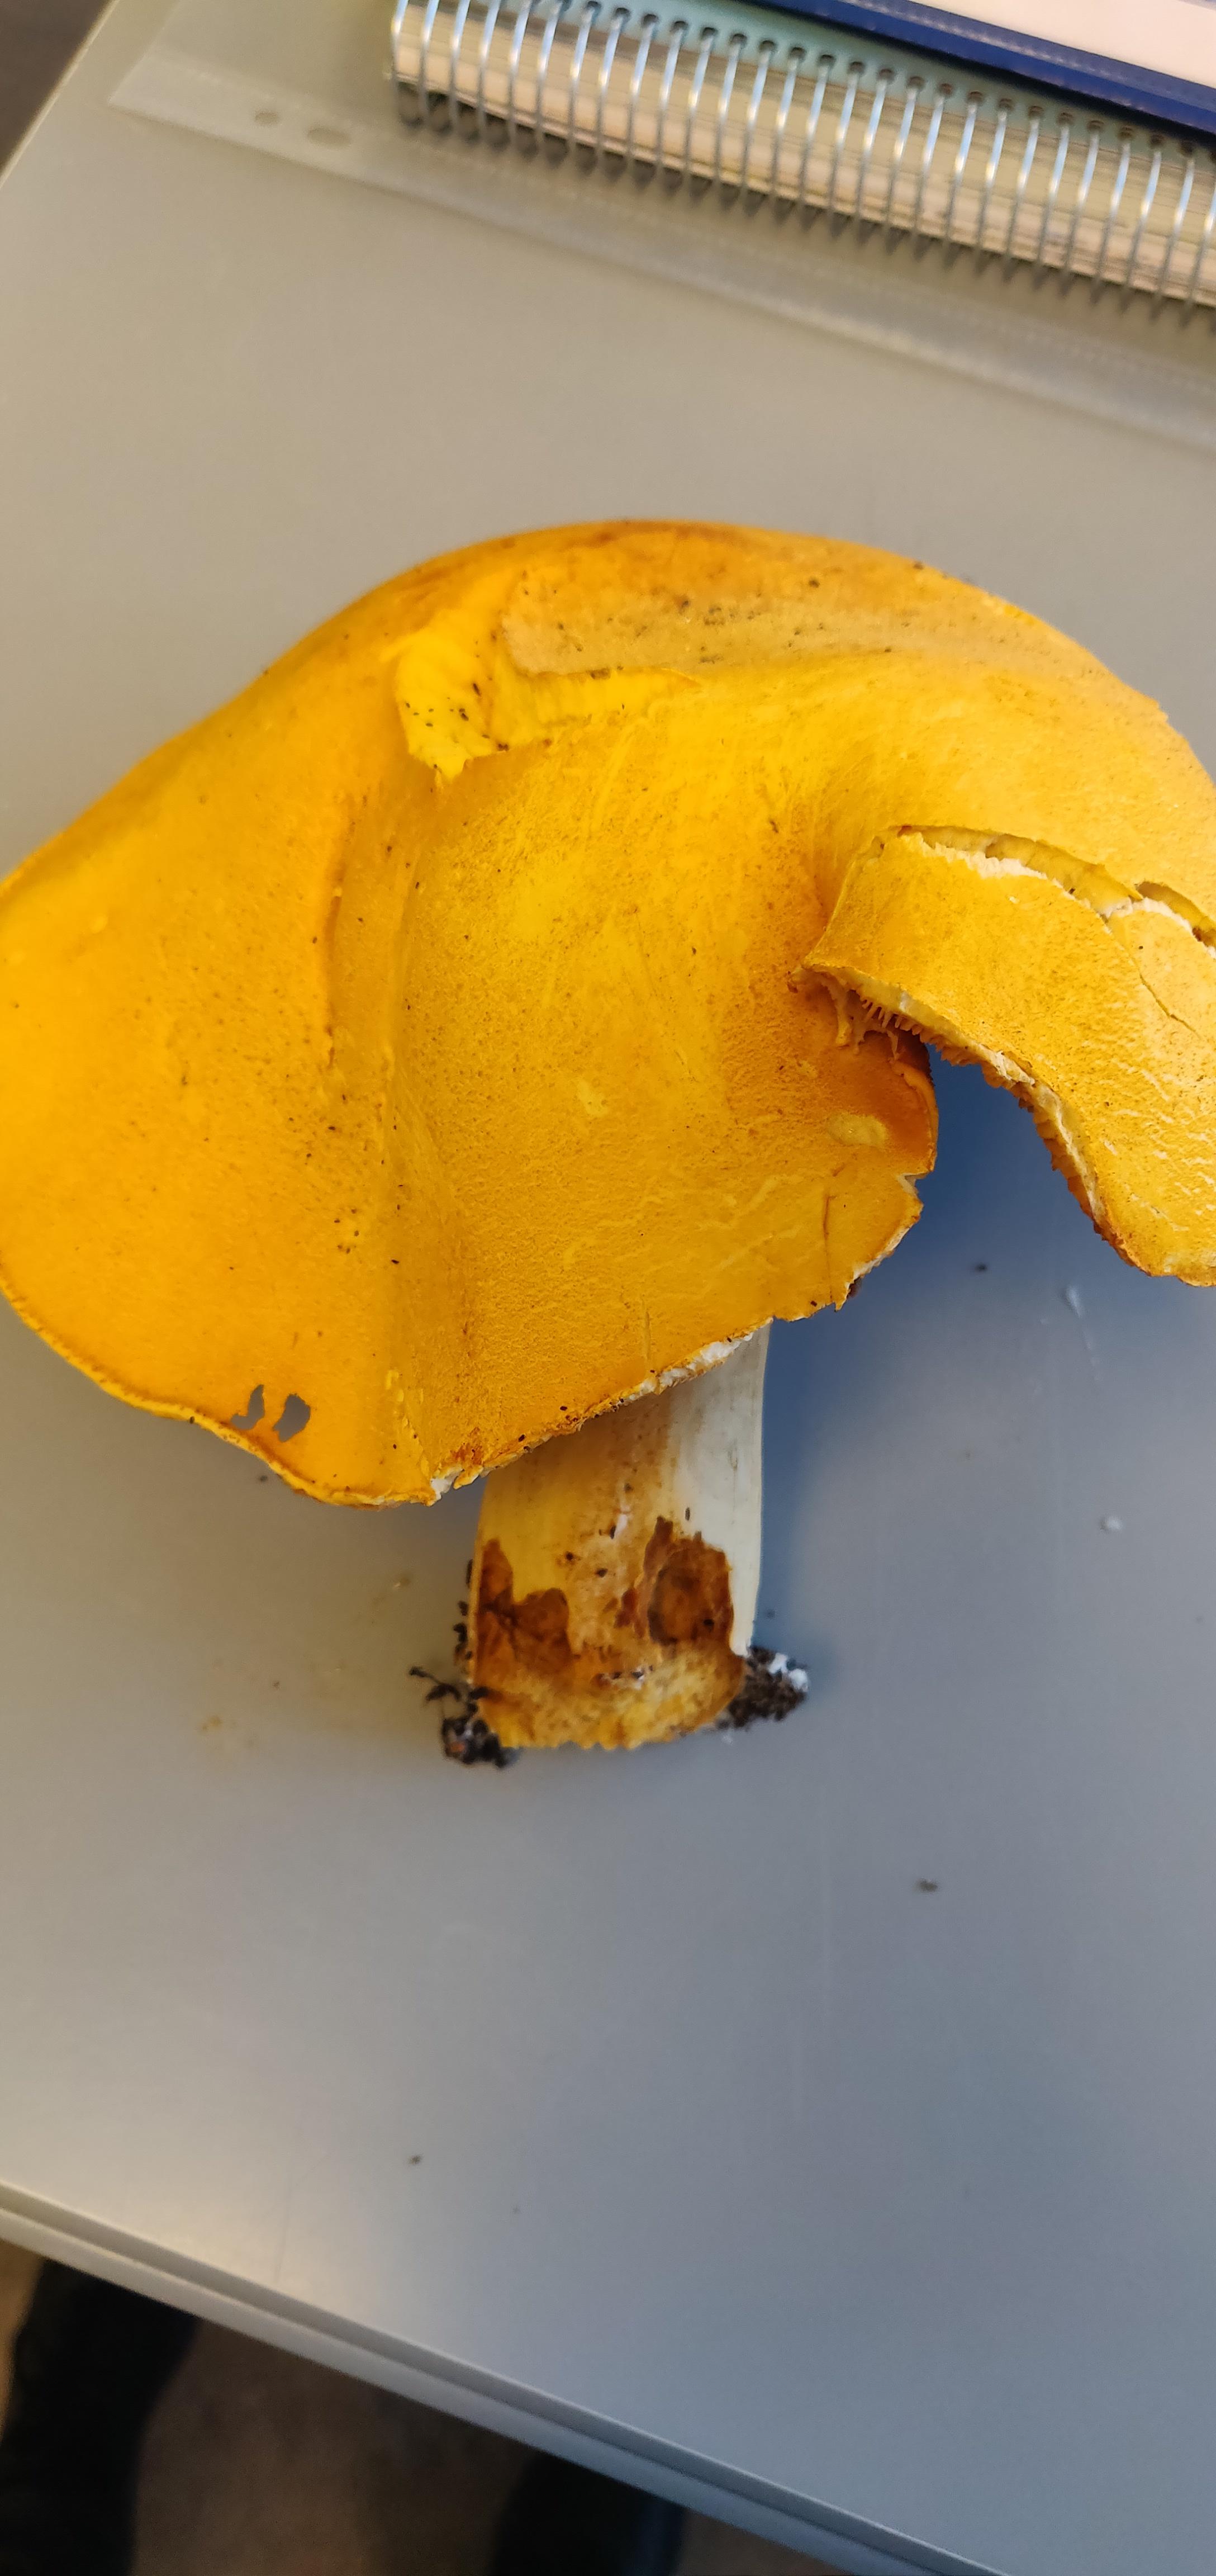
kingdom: Fungi
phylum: Basidiomycota
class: Agaricomycetes
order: Agaricales
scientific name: Agaricales
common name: champignonordenen
